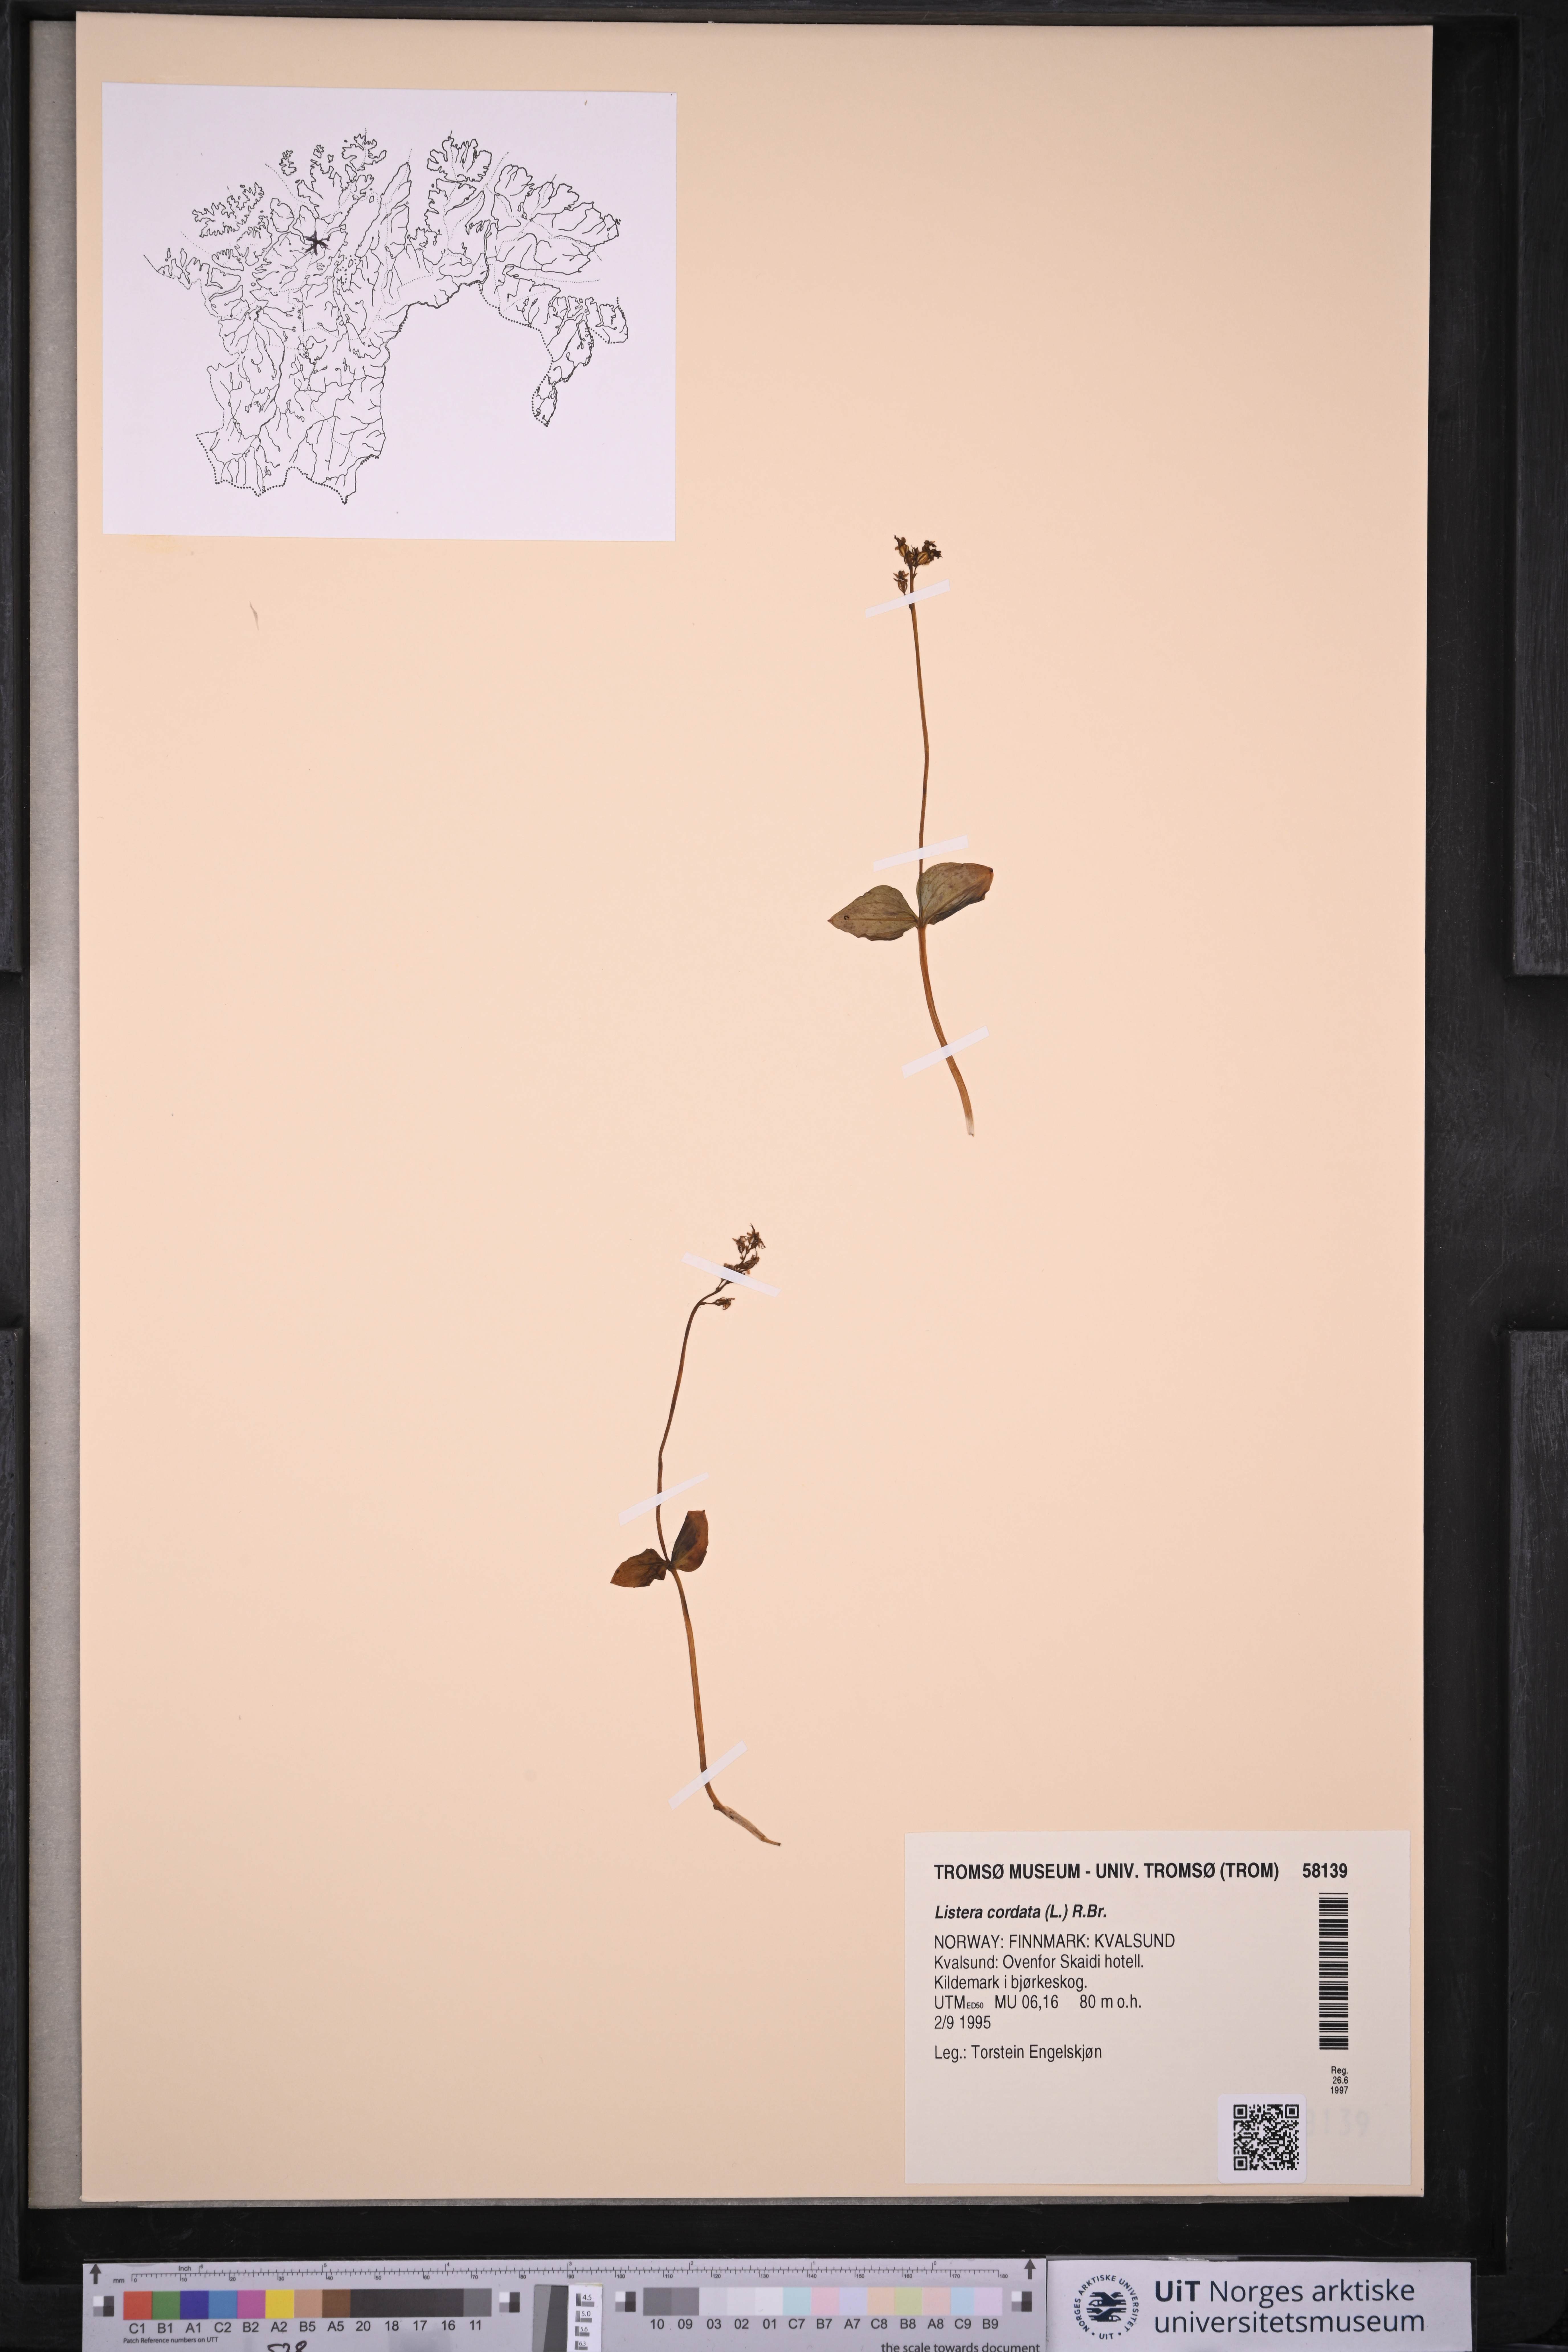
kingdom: Plantae
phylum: Tracheophyta
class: Liliopsida
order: Asparagales
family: Orchidaceae
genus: Neottia
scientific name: Neottia cordata
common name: Lesser twayblade
